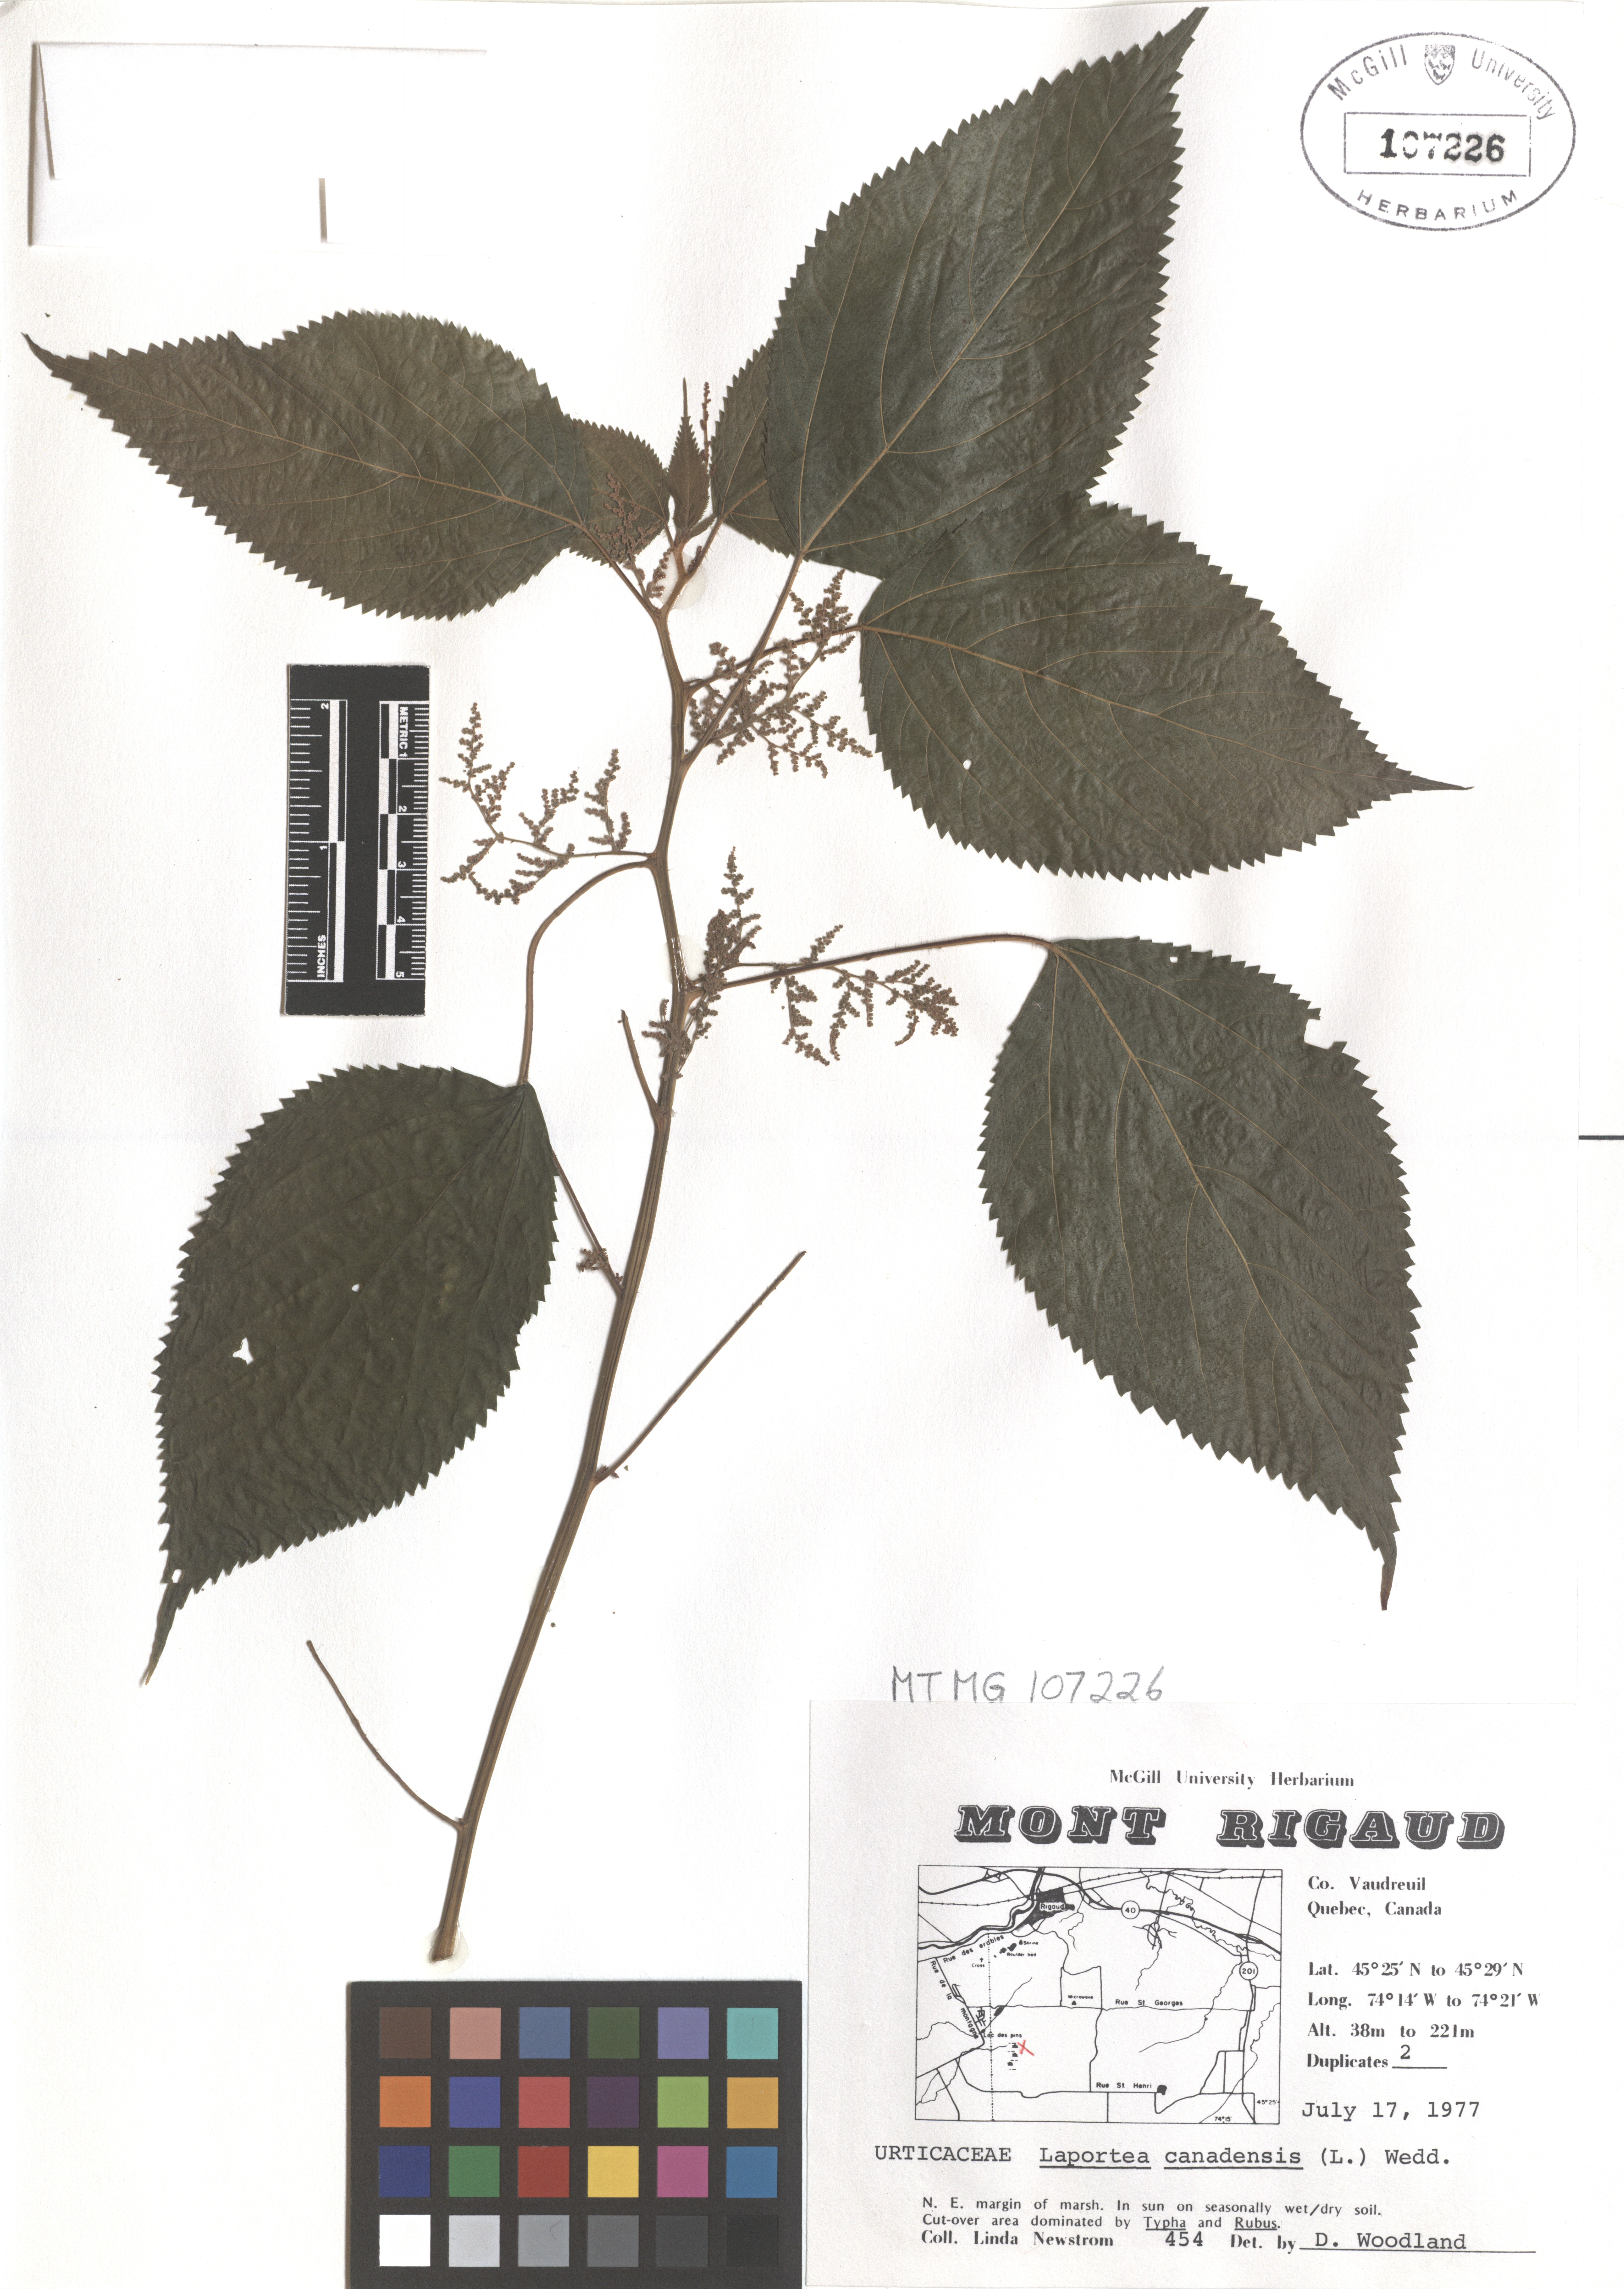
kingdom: Plantae
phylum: Tracheophyta
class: Magnoliopsida
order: Rosales
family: Urticaceae
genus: Laportea
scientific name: Laportea canadensis
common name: Canada nettle
